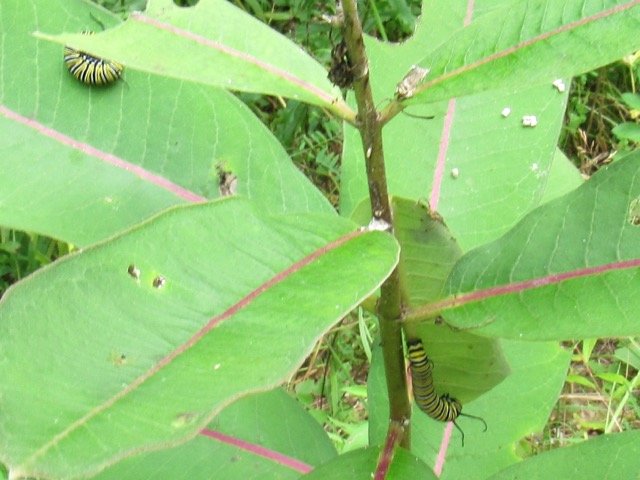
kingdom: Animalia
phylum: Arthropoda
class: Insecta
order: Lepidoptera
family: Nymphalidae
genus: Danaus
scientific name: Danaus plexippus
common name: Monarch
